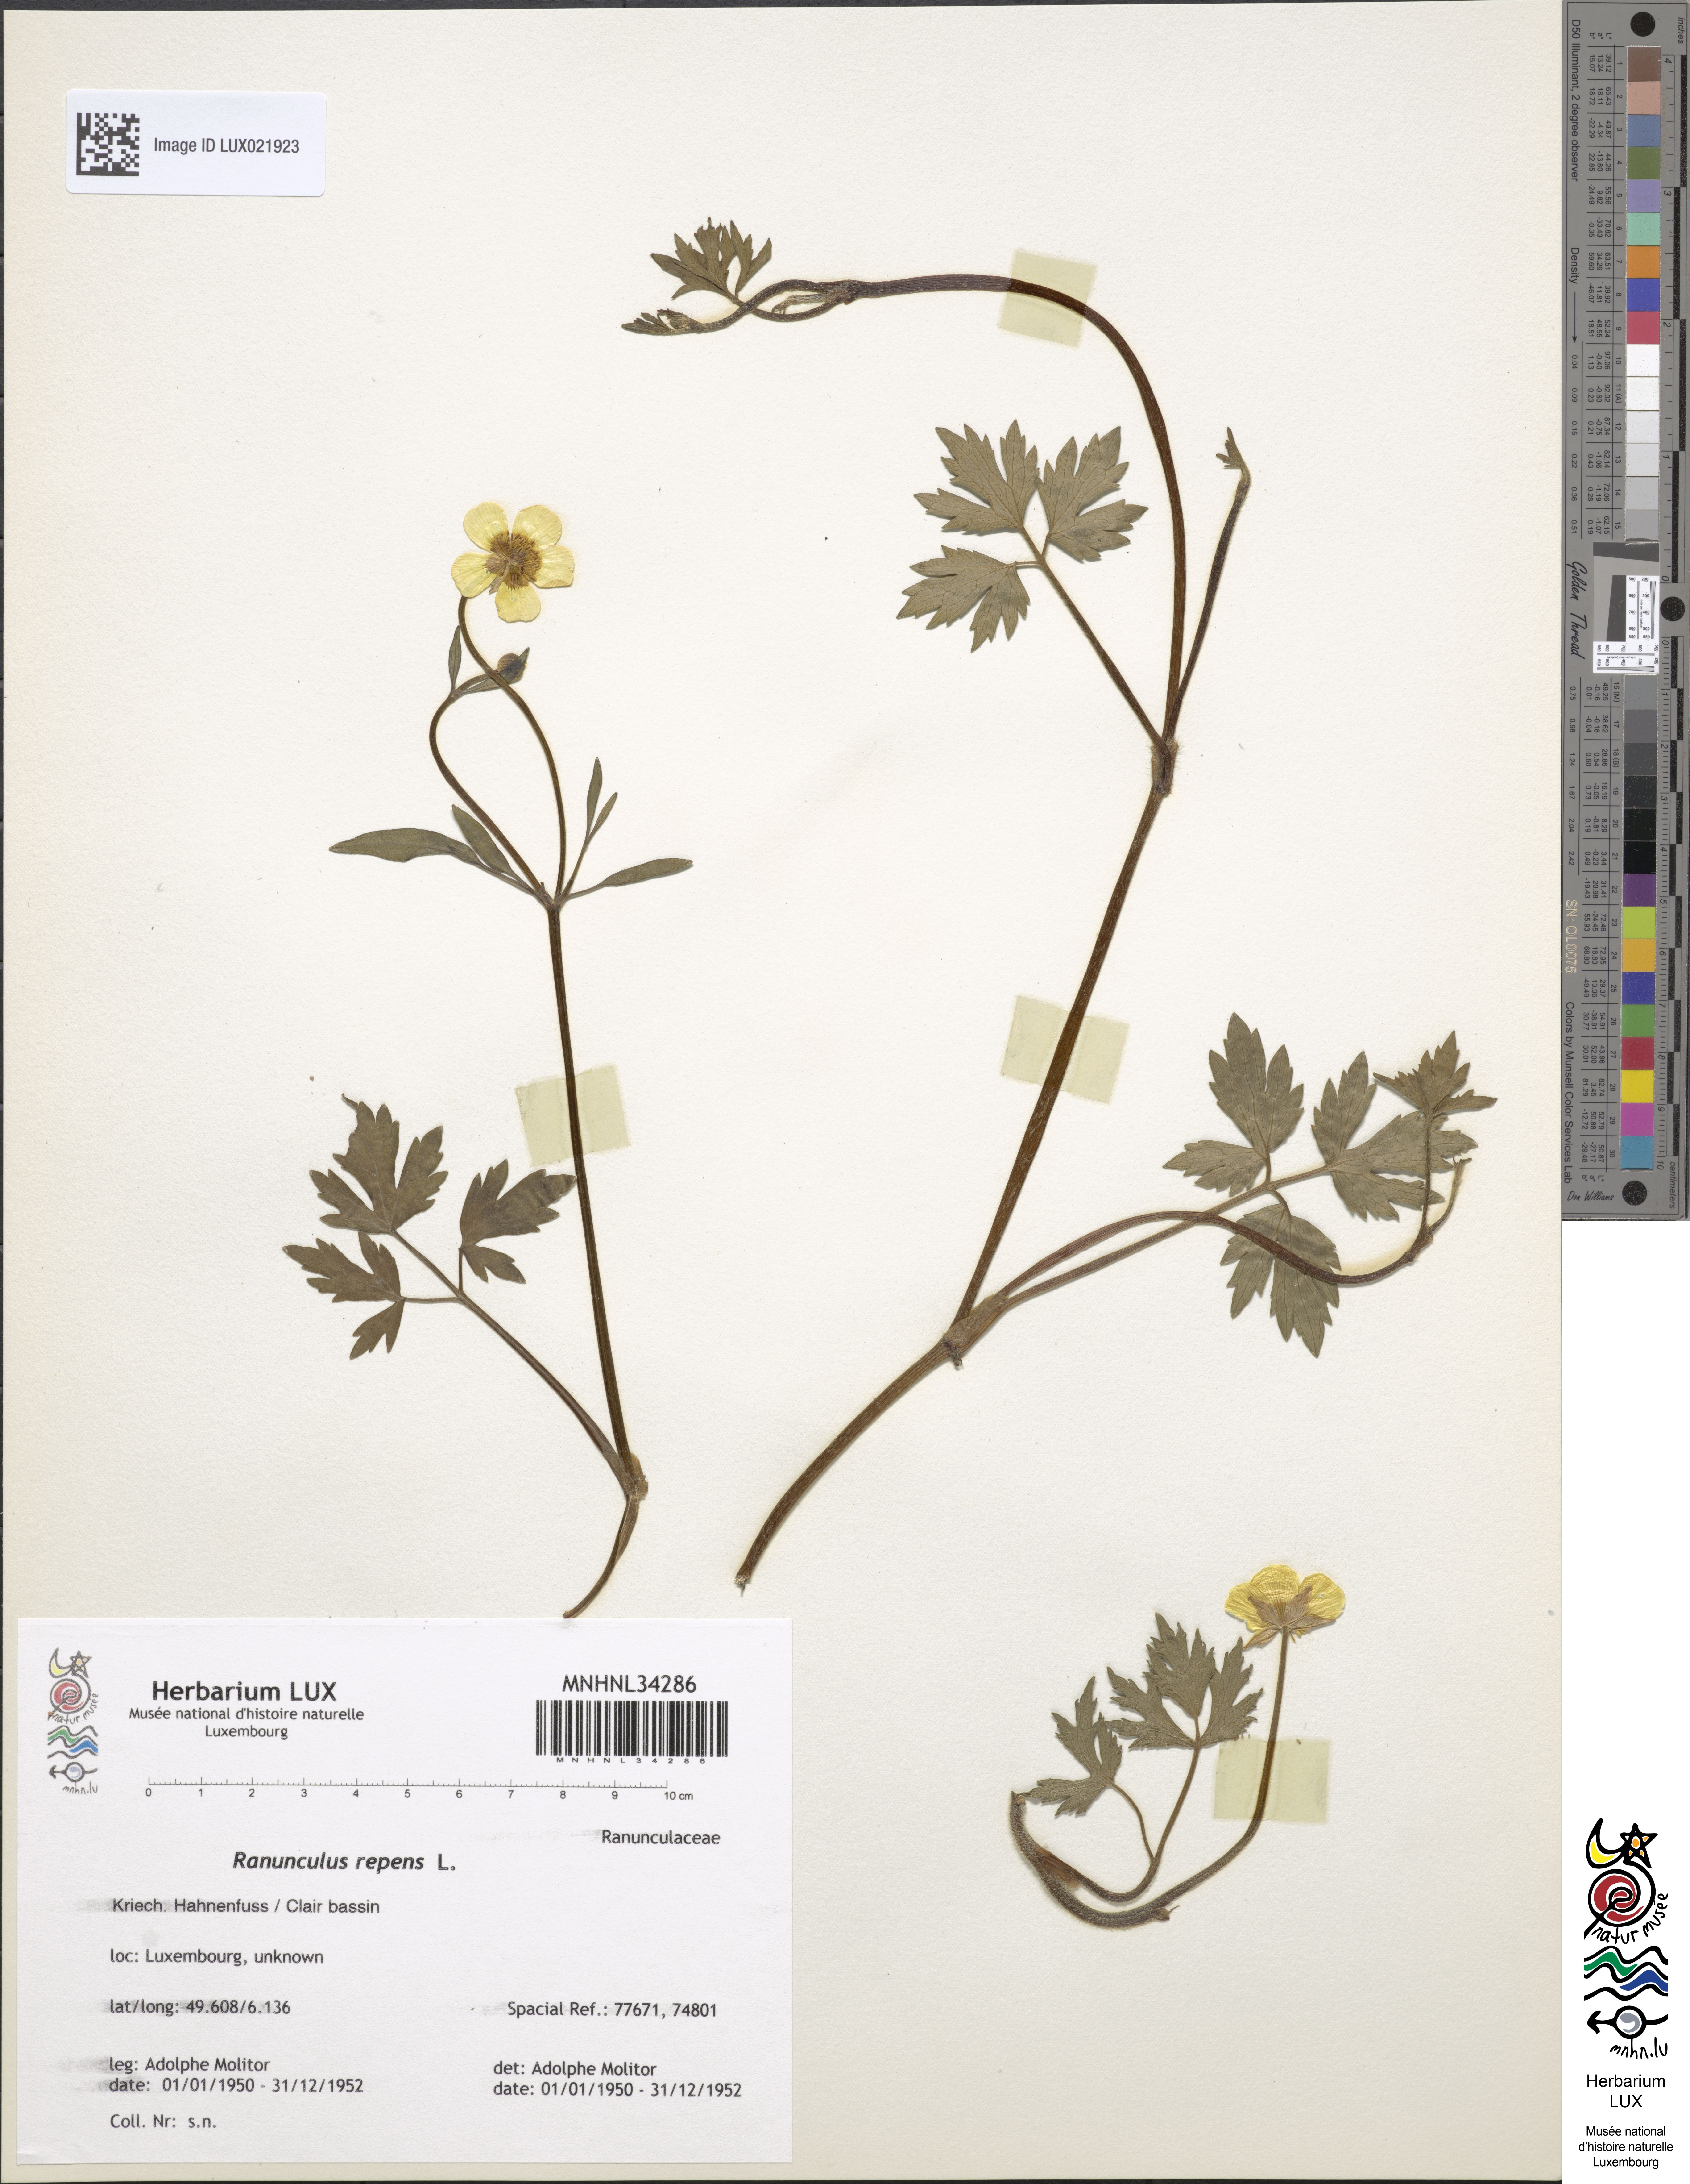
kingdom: Plantae
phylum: Tracheophyta
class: Magnoliopsida
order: Ranunculales
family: Ranunculaceae
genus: Ranunculus
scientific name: Ranunculus repens
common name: Creeping buttercup
